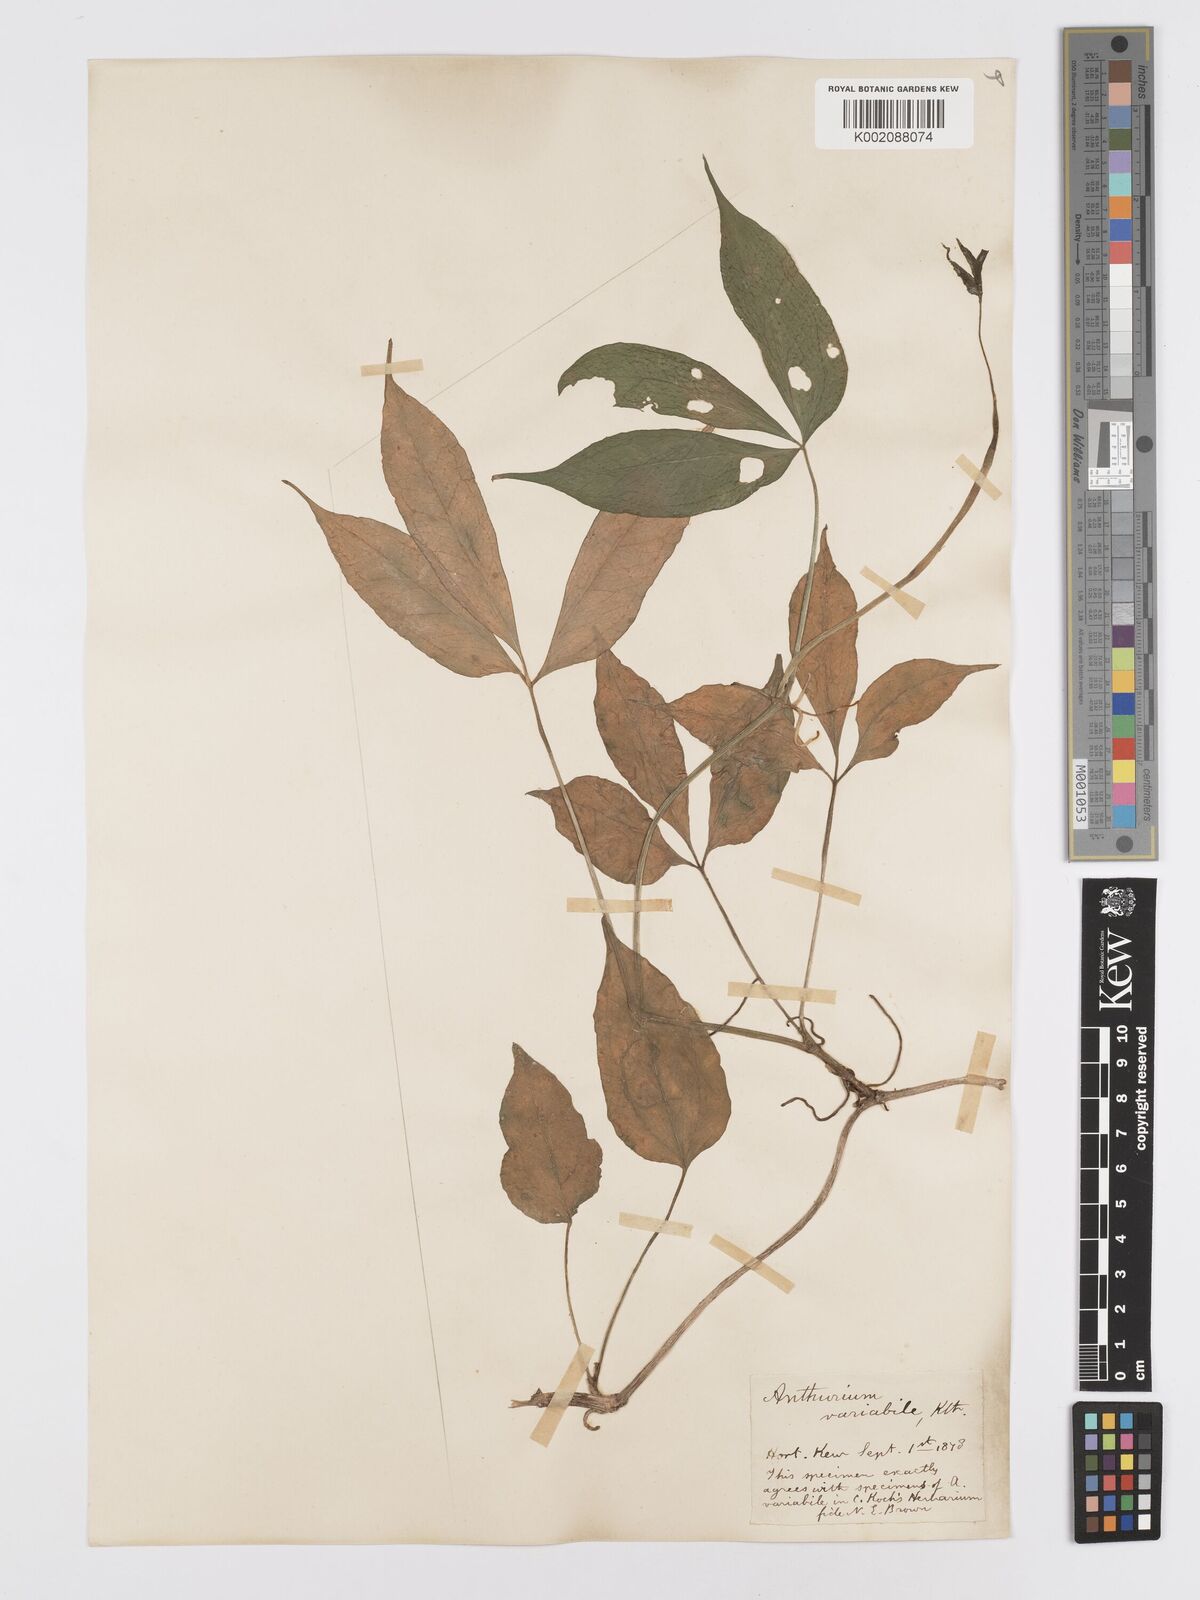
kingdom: Plantae
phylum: Tracheophyta
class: Liliopsida
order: Alismatales
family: Araceae
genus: Anthurium
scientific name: Anthurium pentaphyllum
